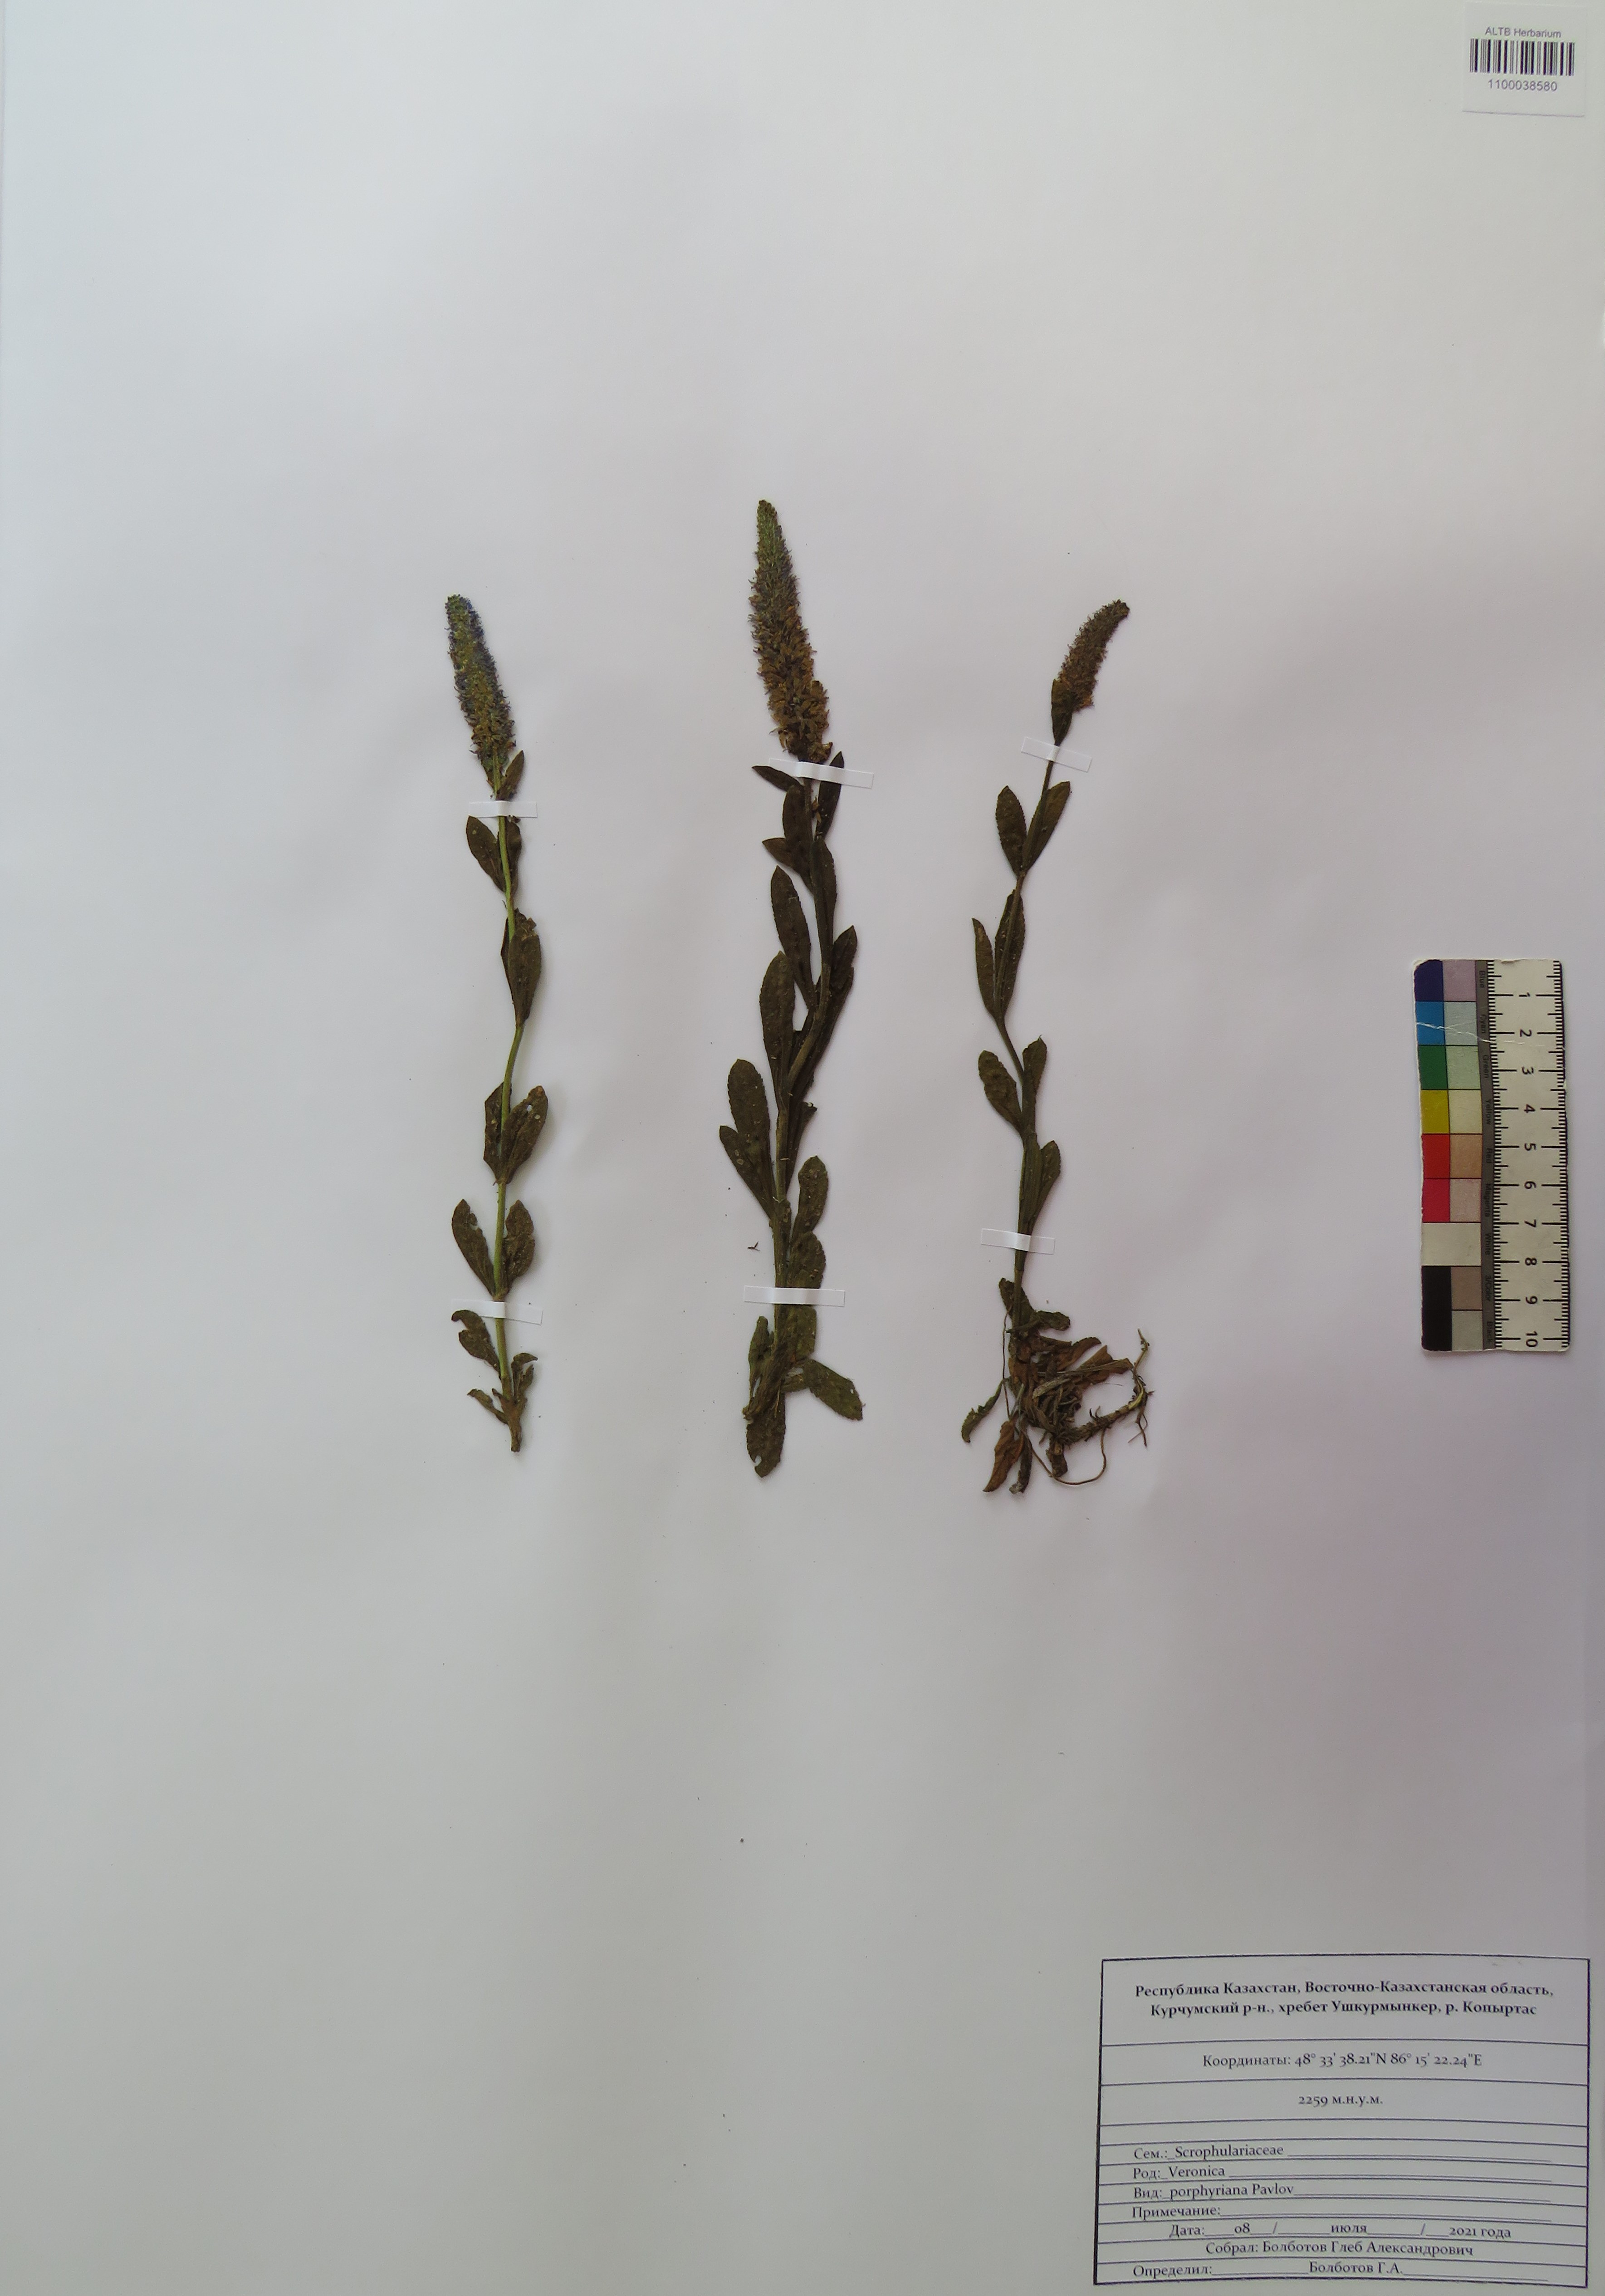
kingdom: Plantae
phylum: Tracheophyta
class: Magnoliopsida
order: Lamiales
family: Plantaginaceae
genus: Veronica
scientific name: Veronica porphyriana
